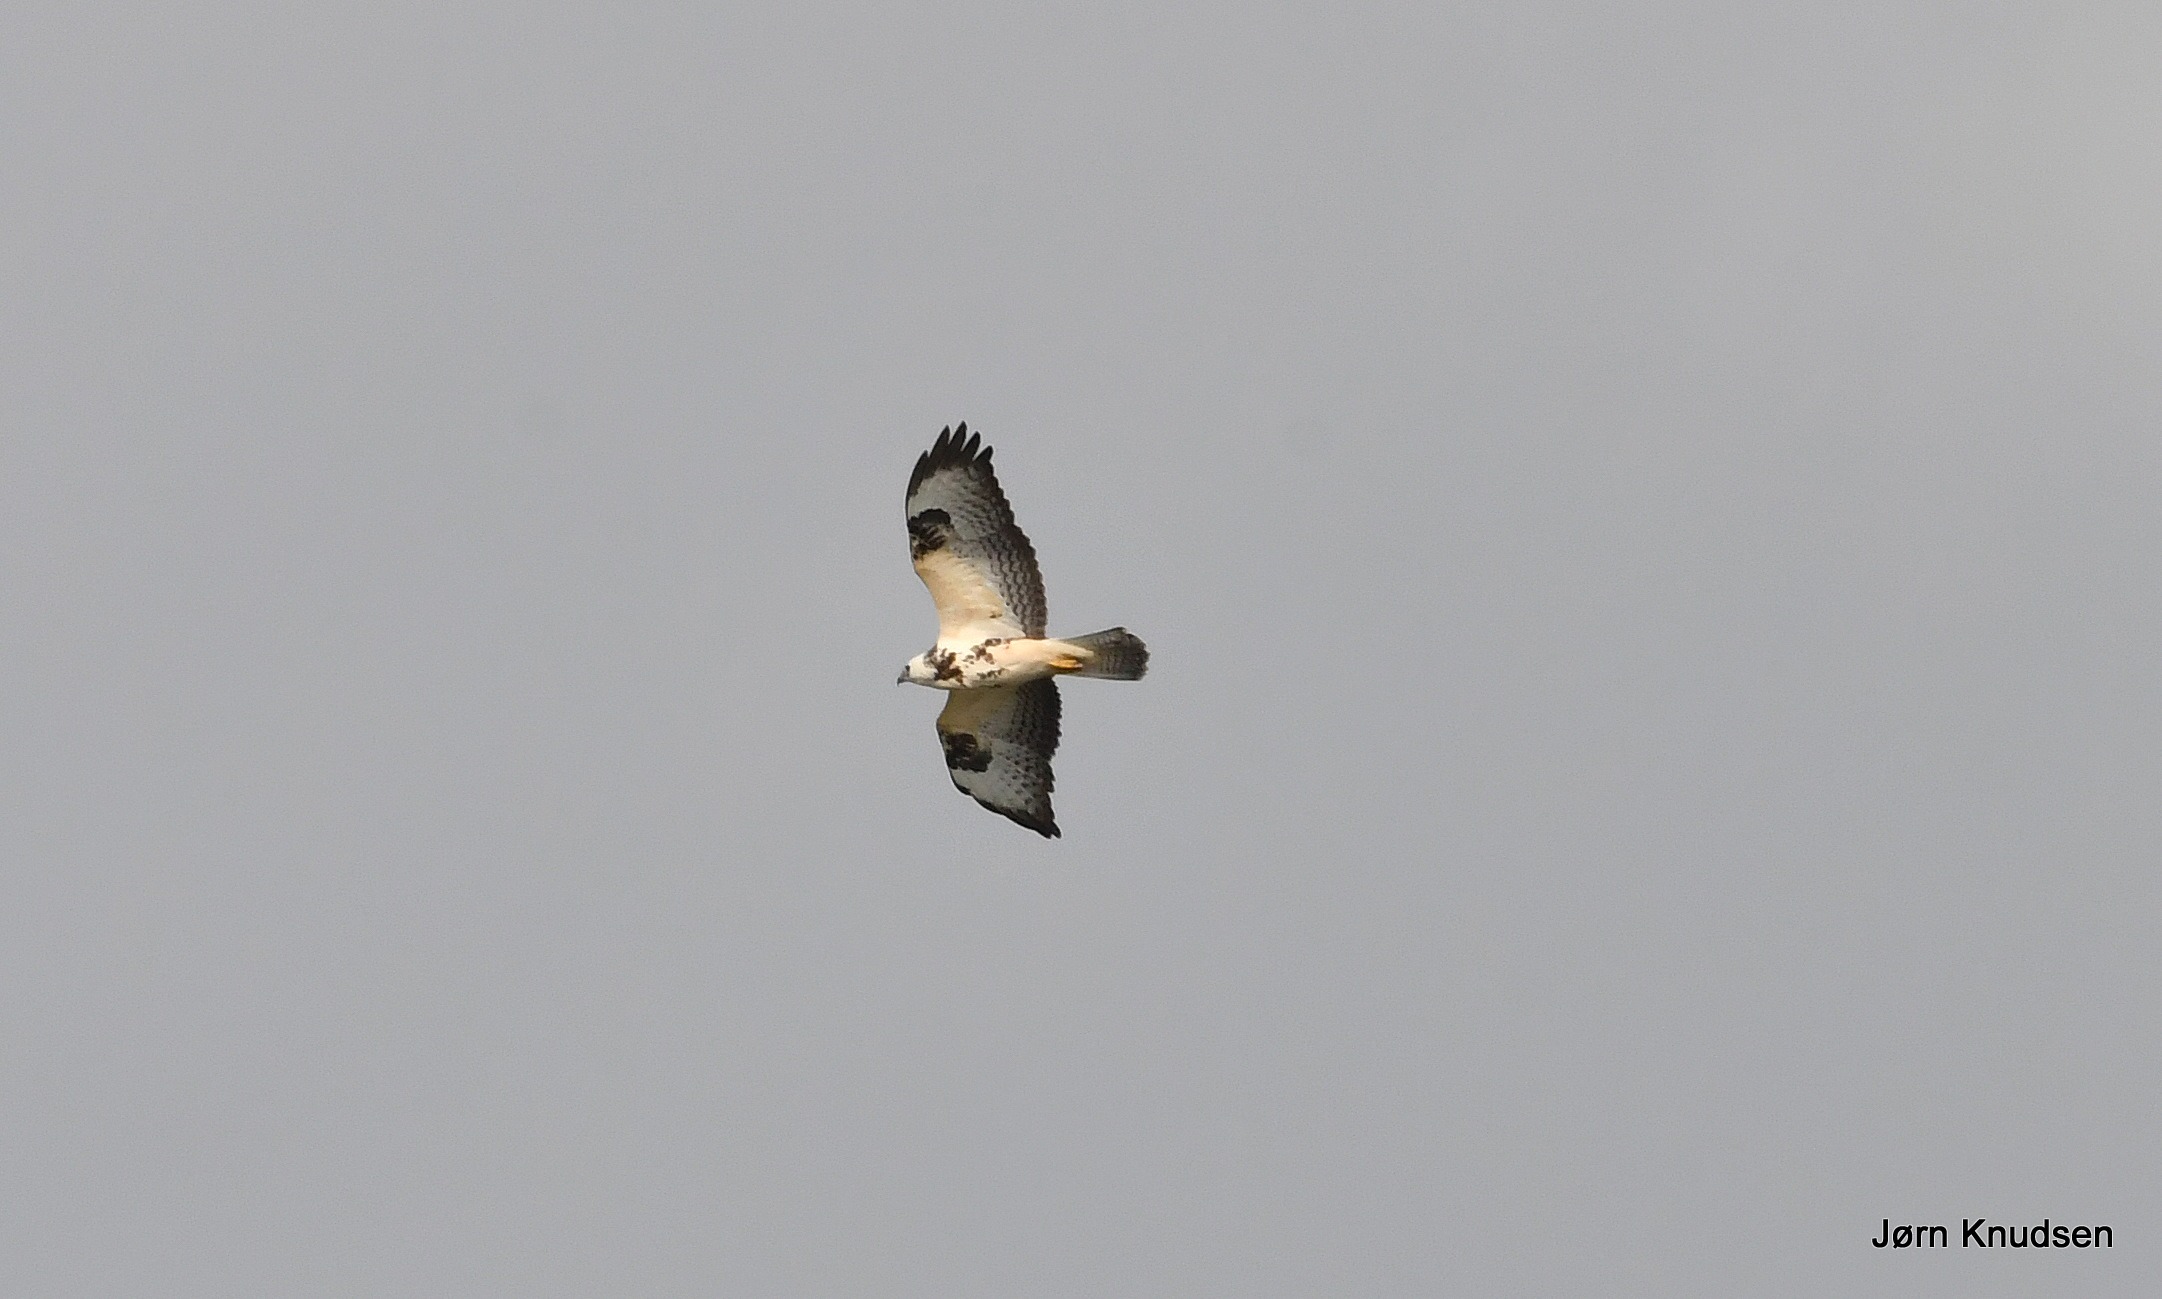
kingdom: Animalia
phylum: Chordata
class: Aves
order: Accipitriformes
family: Accipitridae
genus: Buteo
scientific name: Buteo buteo
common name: Musvåge
